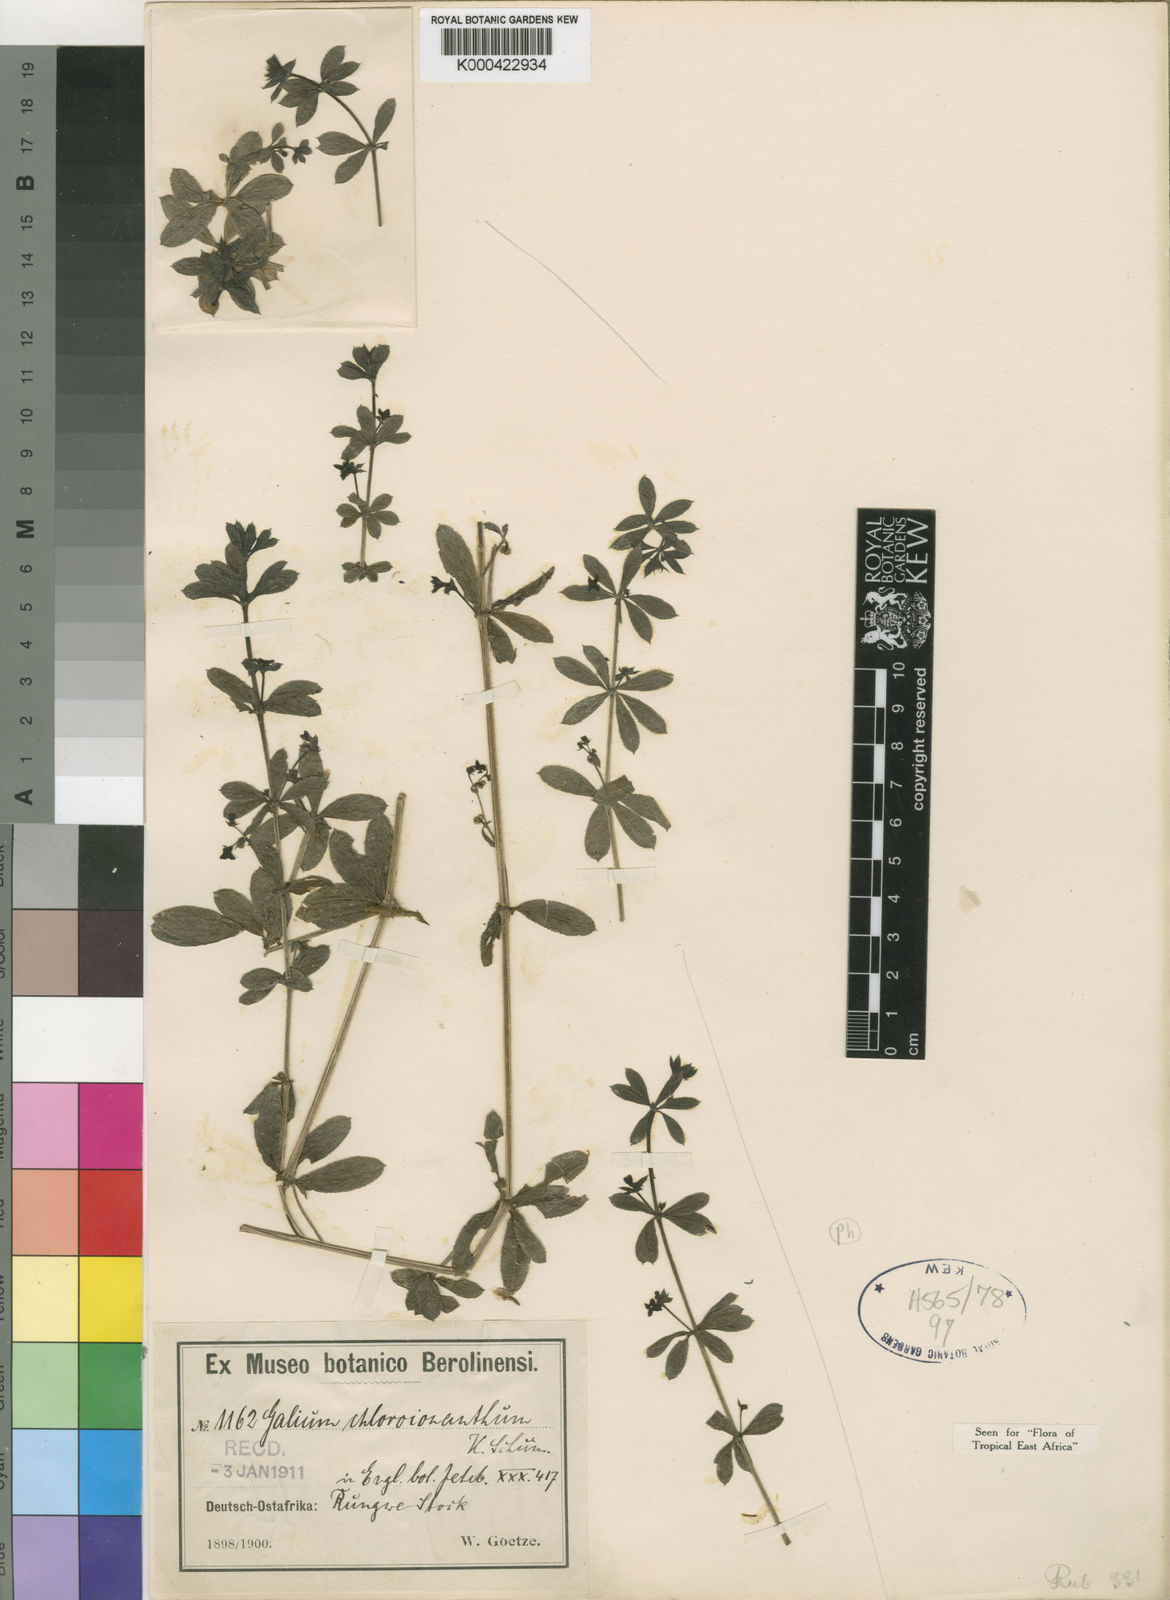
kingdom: Plantae
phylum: Tracheophyta
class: Magnoliopsida
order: Gentianales
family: Rubiaceae
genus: Galium
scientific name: Galium chloroionanthum
